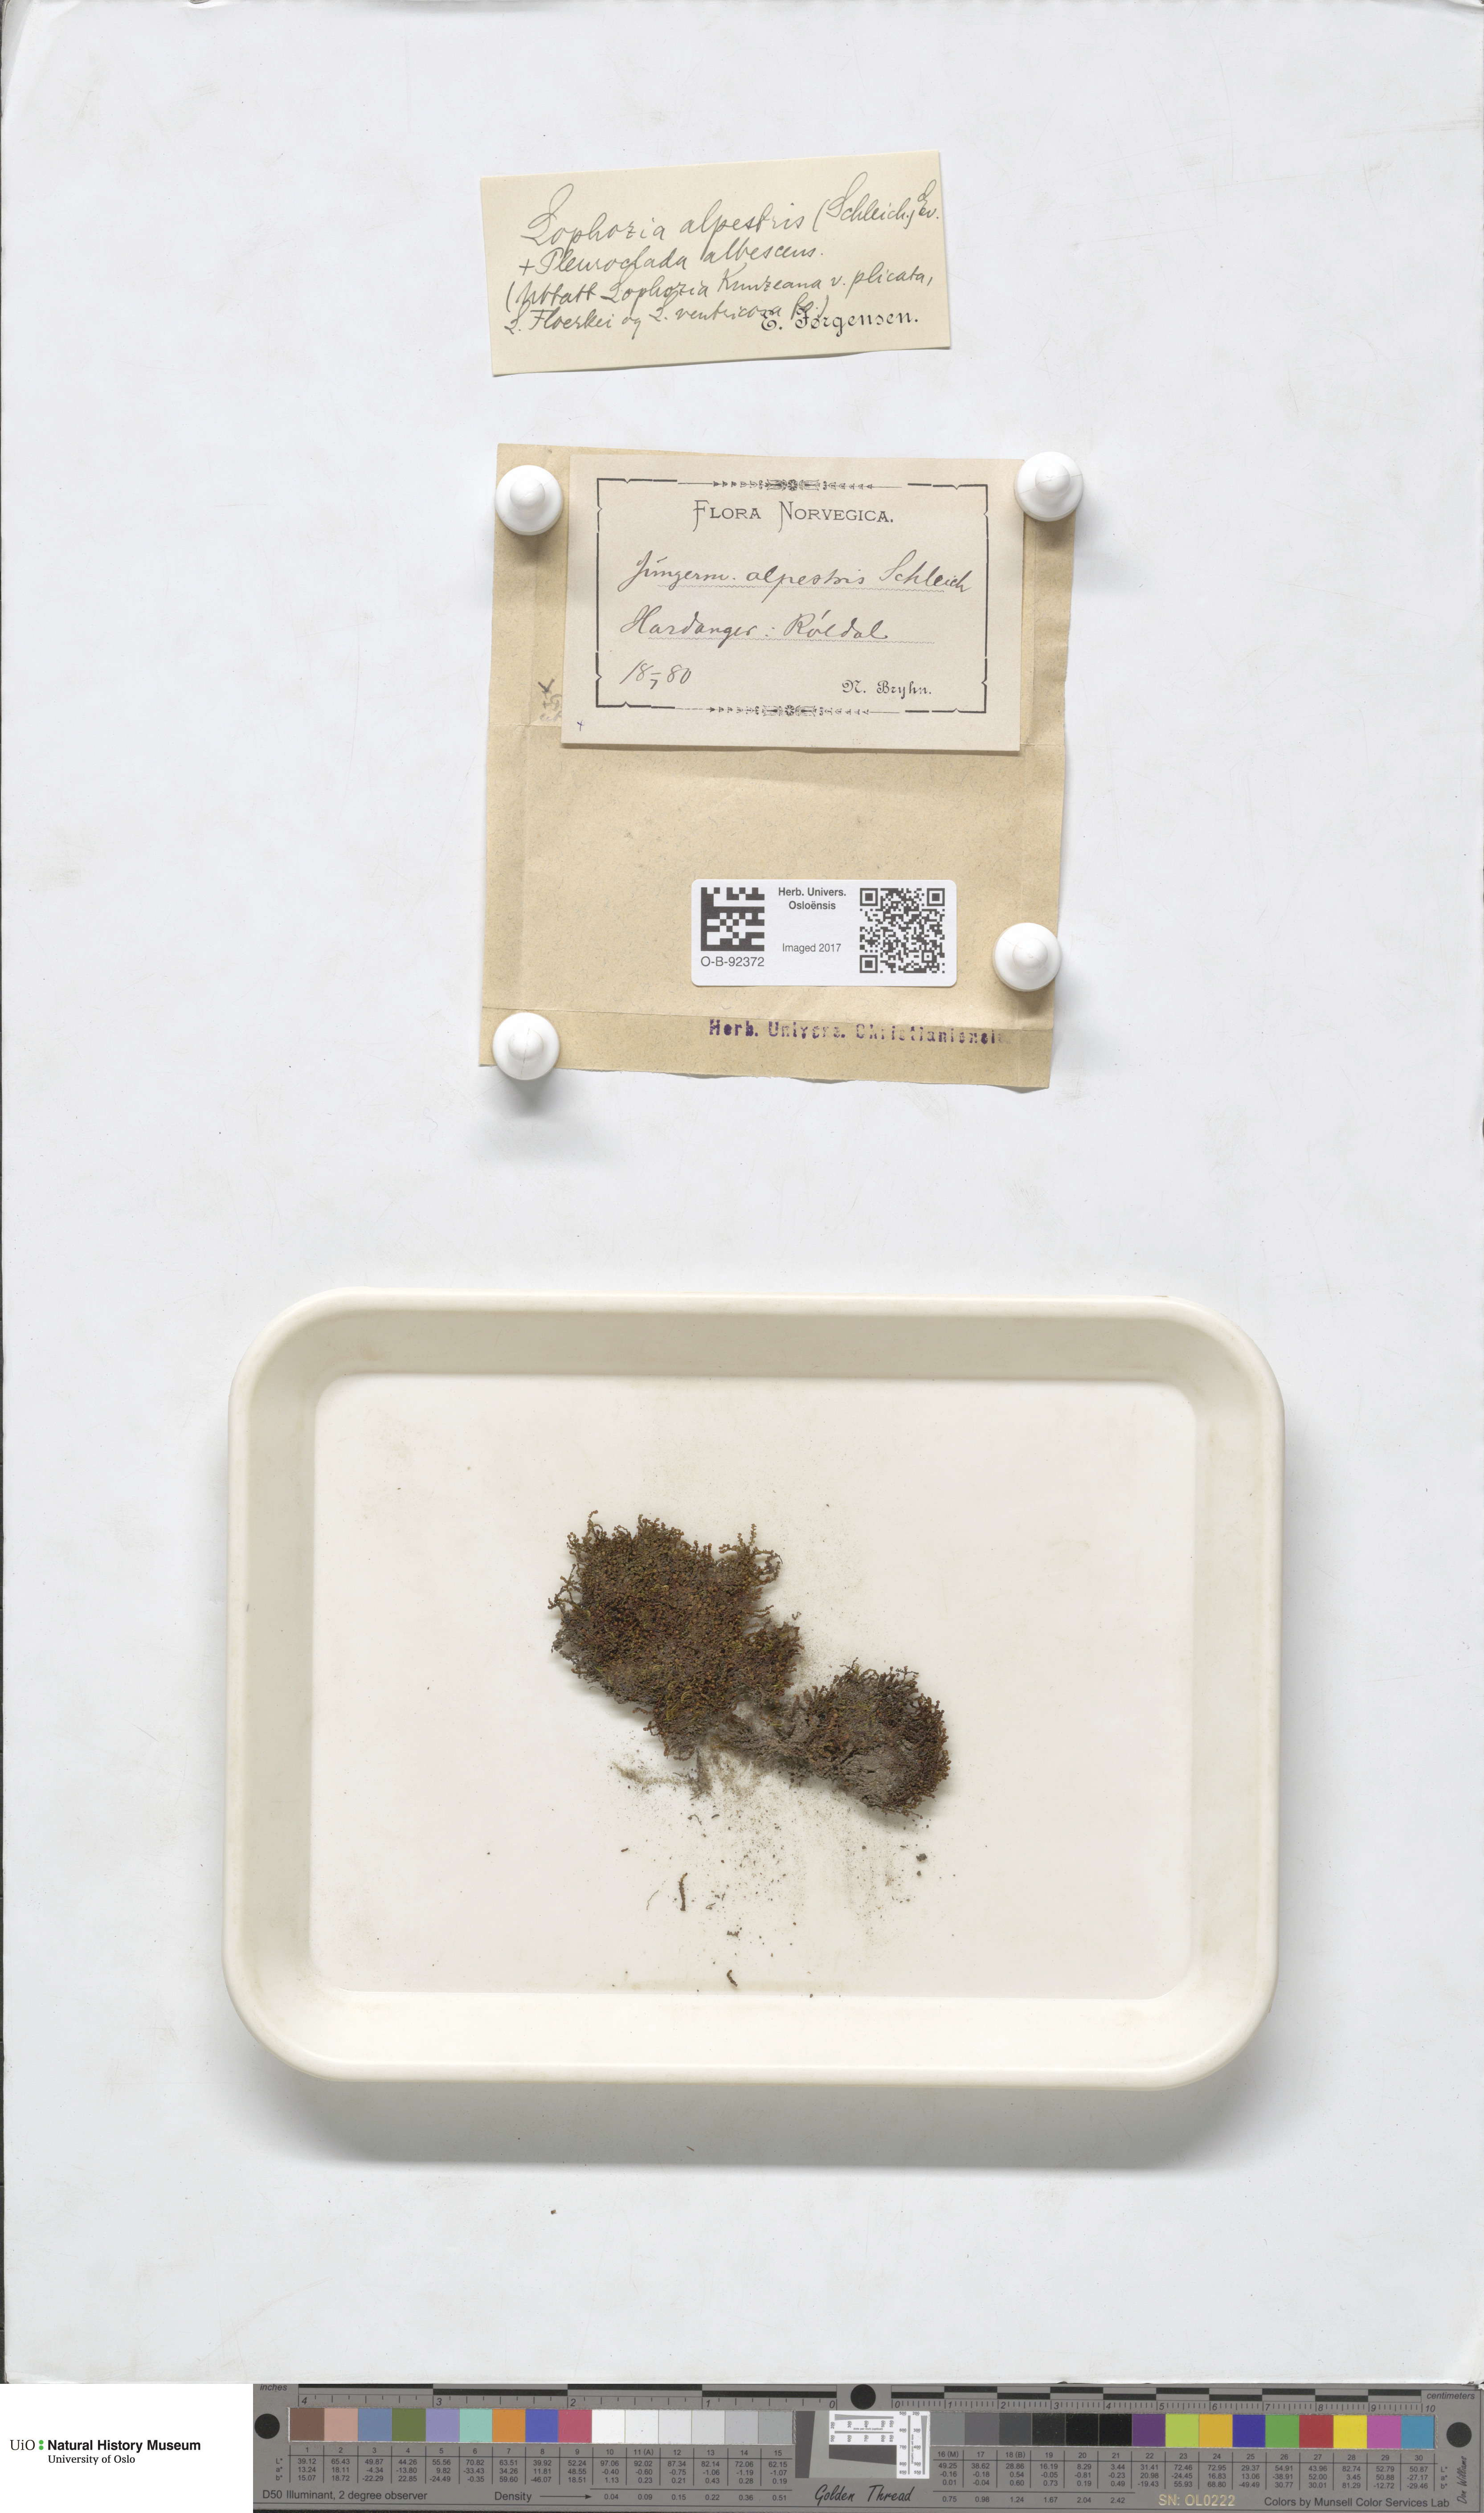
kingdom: Plantae
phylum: Marchantiophyta
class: Jungermanniopsida
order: Jungermanniales
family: Anastrophyllaceae
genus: Barbilophozia
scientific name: Barbilophozia sudetica
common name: Hill notchwort
